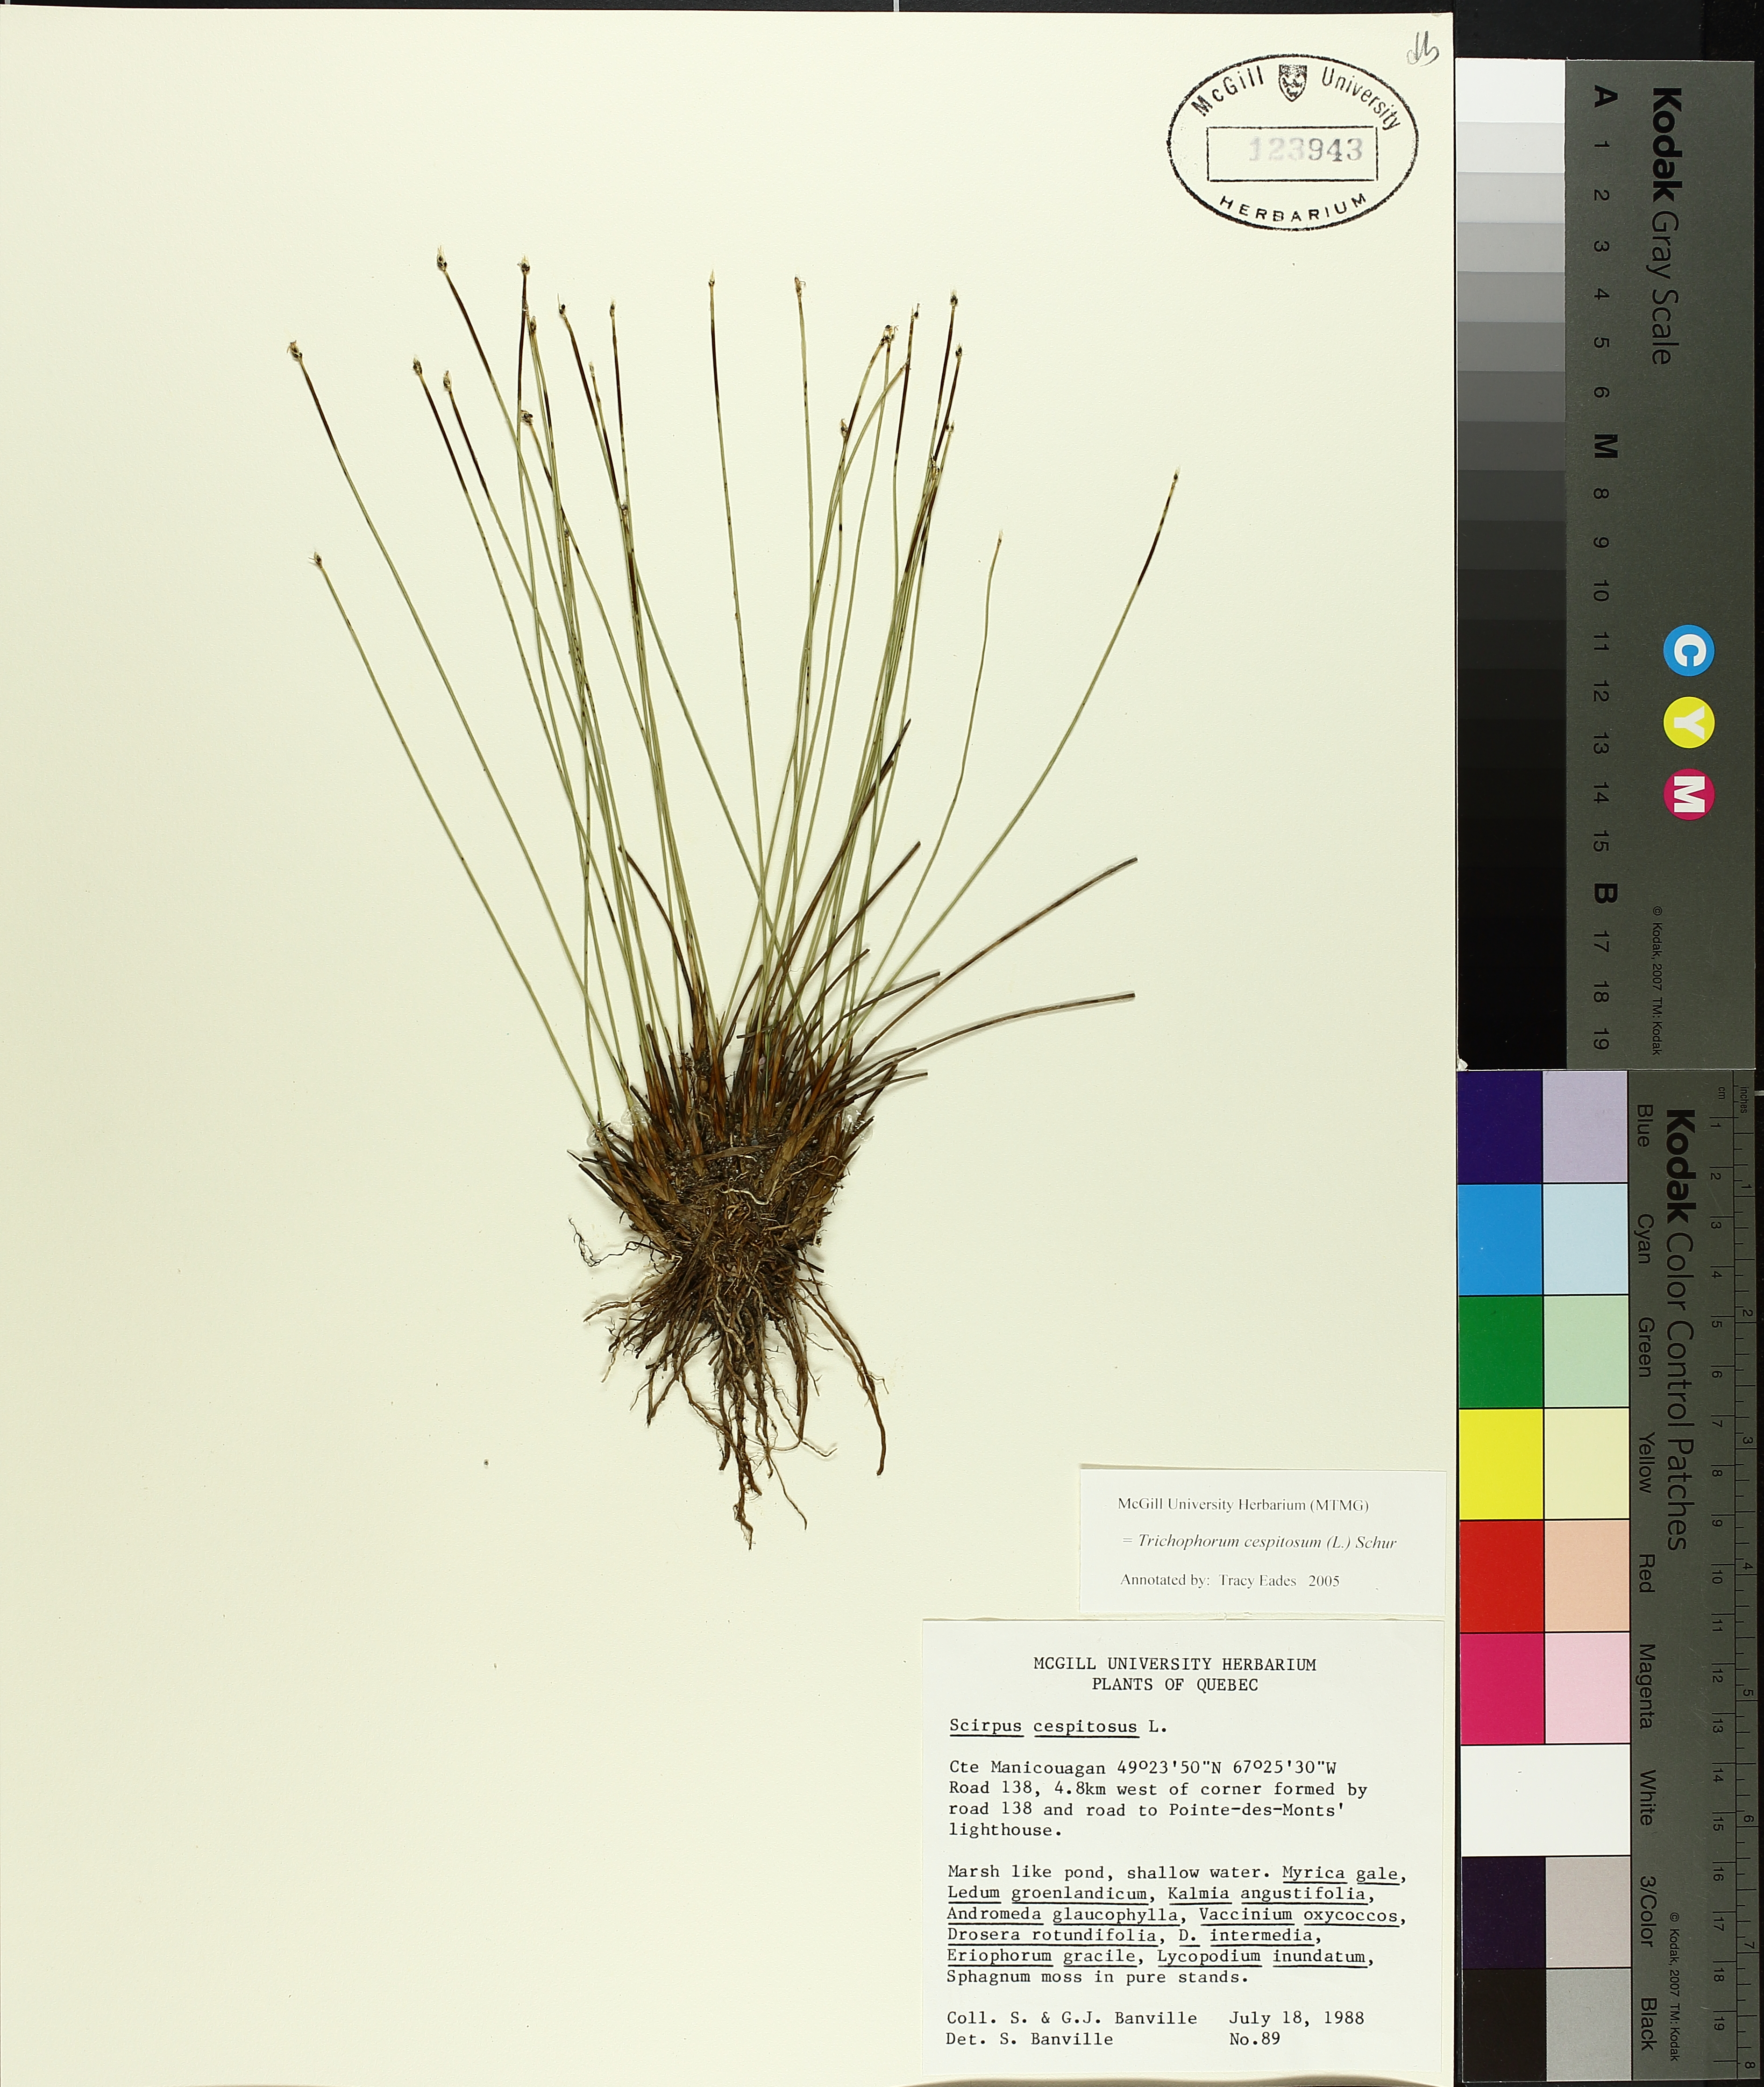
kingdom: Plantae
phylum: Tracheophyta
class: Liliopsida
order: Poales
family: Cyperaceae
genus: Trichophorum
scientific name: Trichophorum cespitosum
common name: Cespitose bulrush
